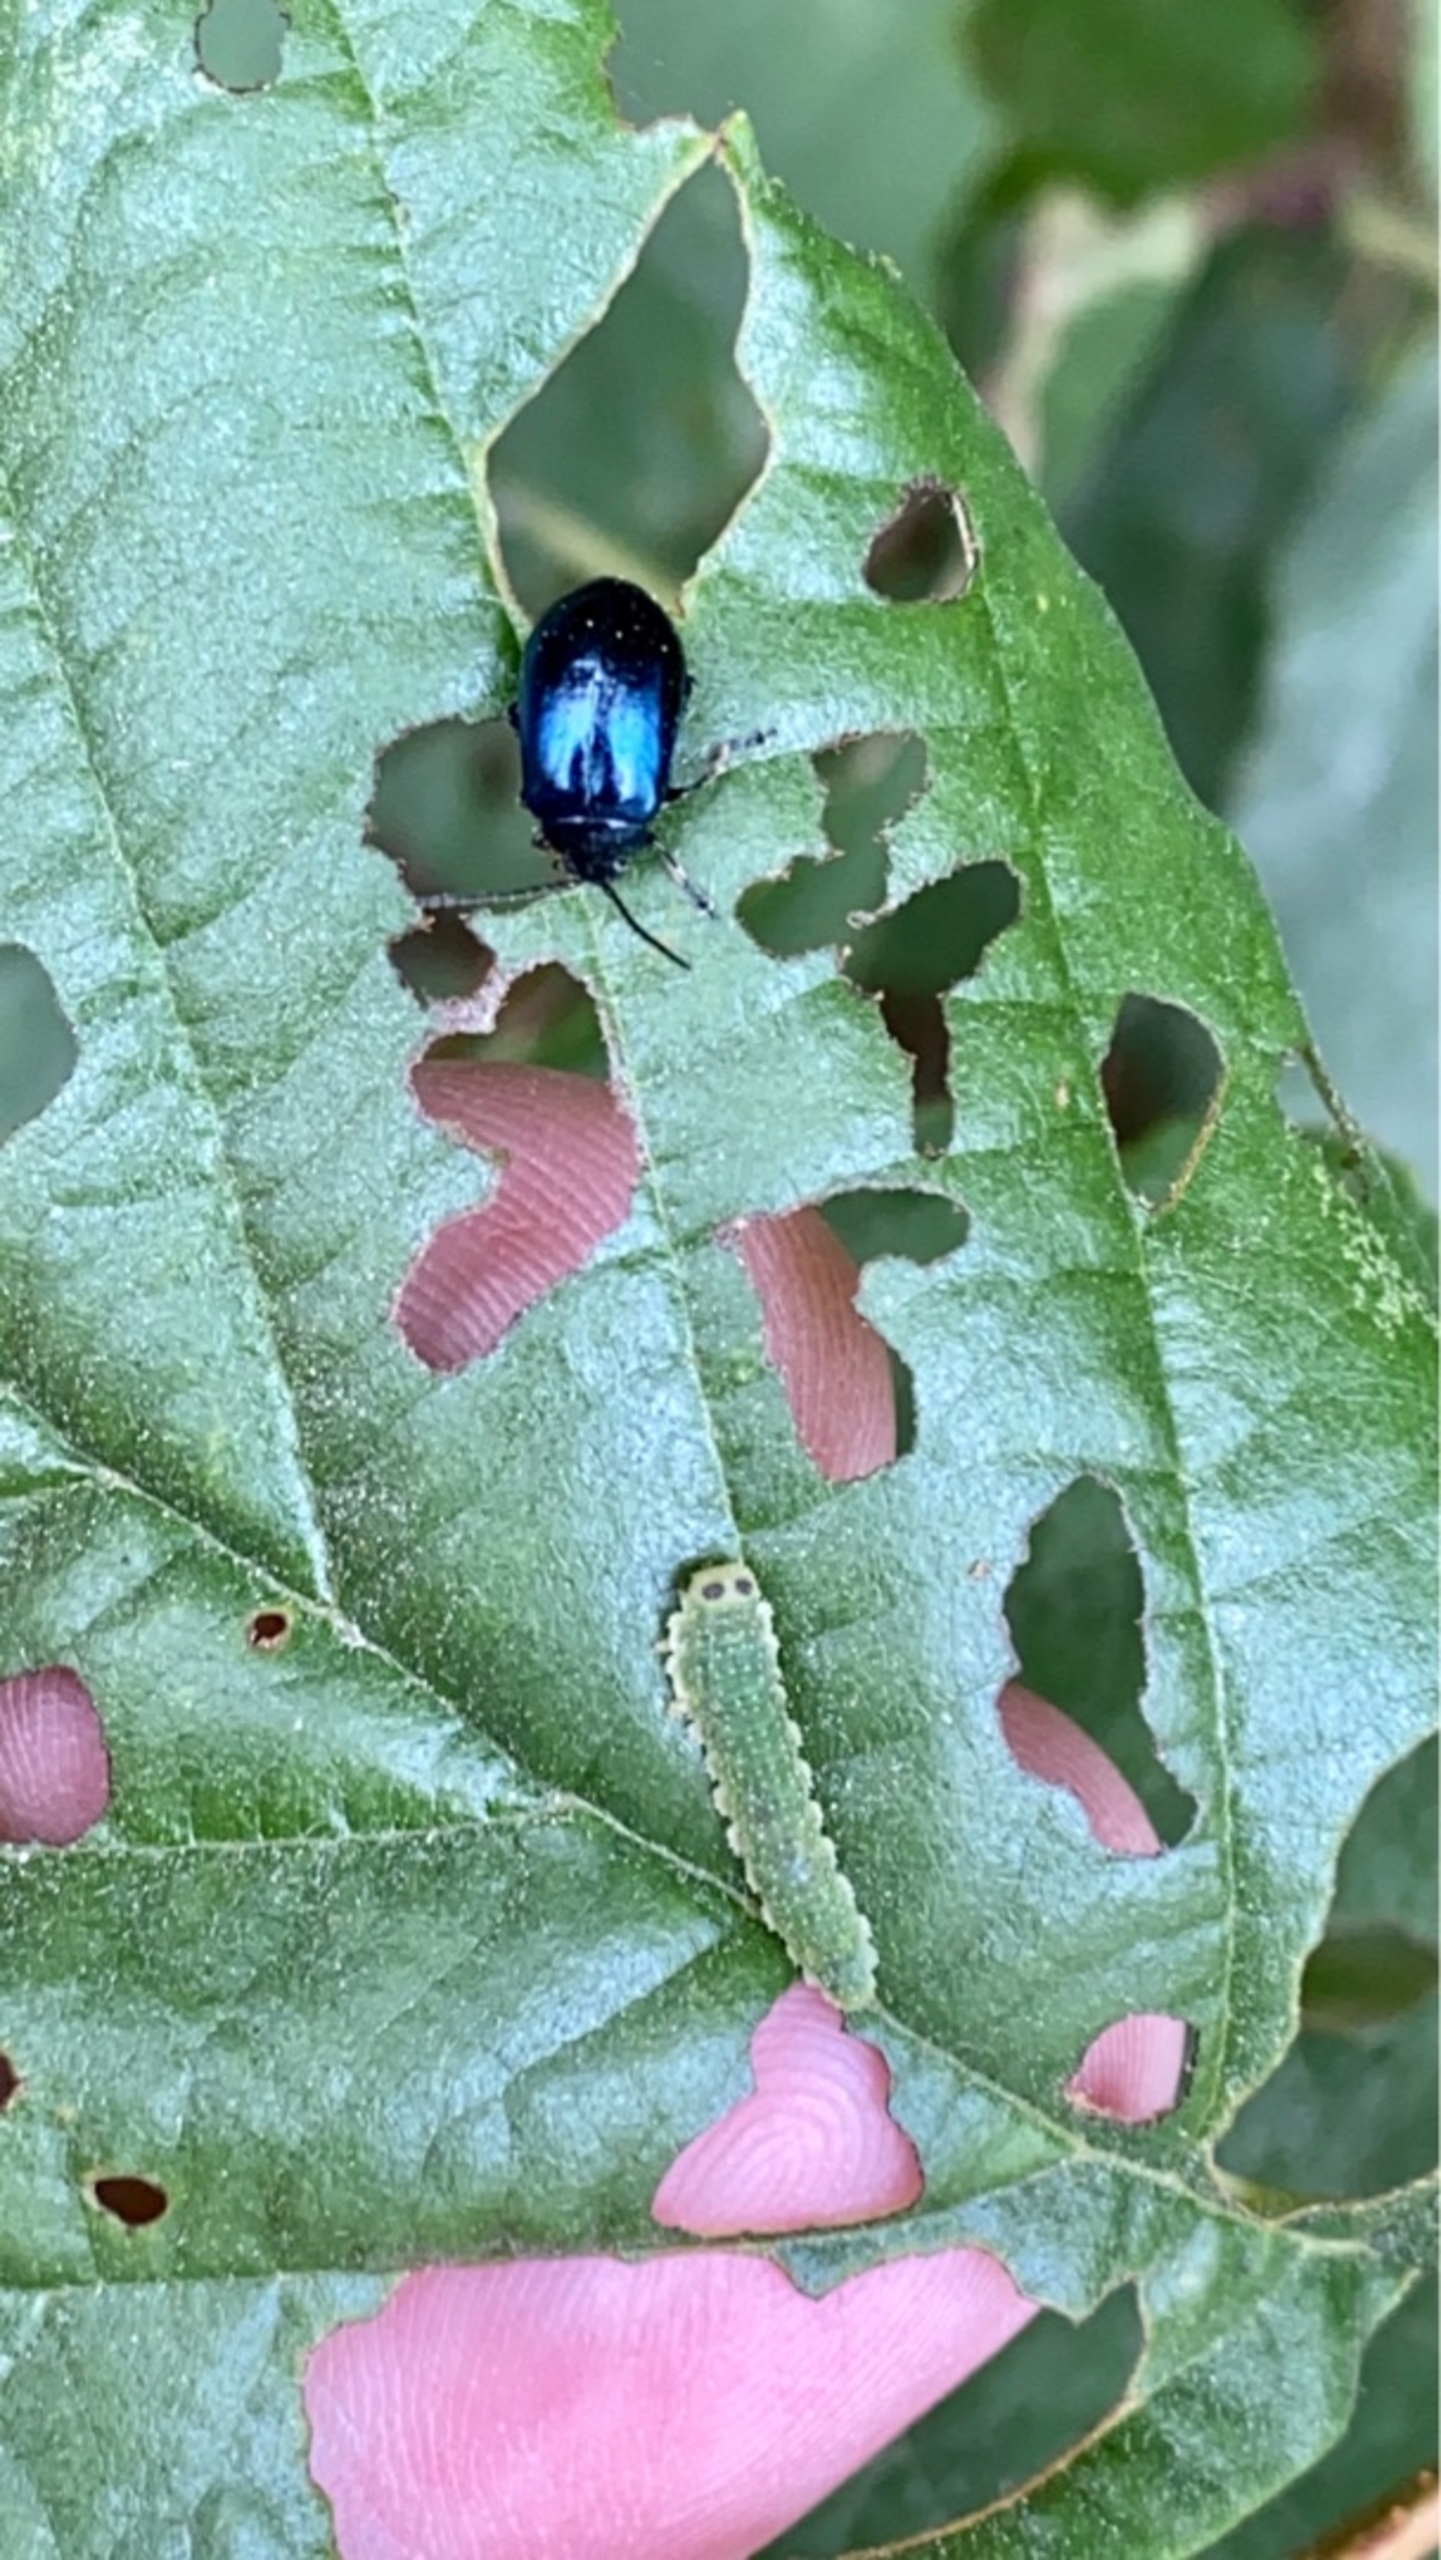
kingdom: Animalia
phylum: Arthropoda
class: Insecta
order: Coleoptera
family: Chrysomelidae
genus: Agelastica
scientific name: Agelastica alni
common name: Ellebladbille
